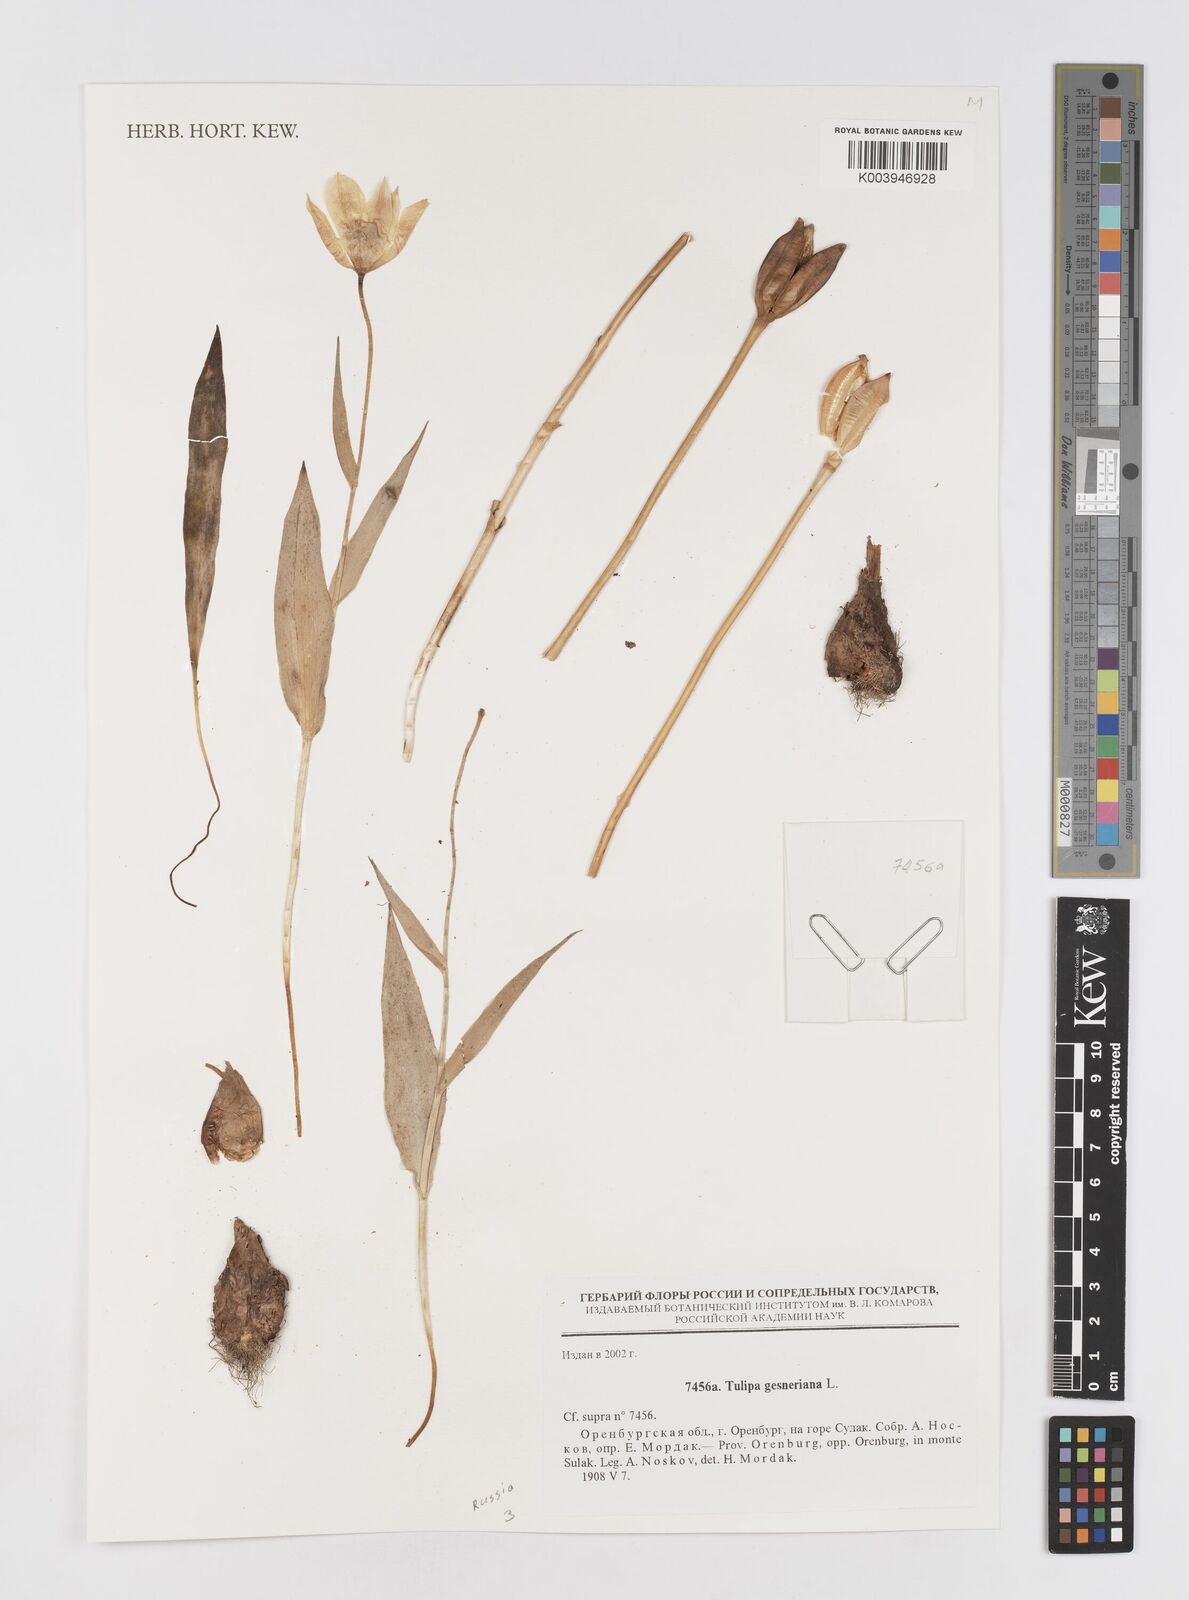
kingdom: Plantae
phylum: Tracheophyta
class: Liliopsida
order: Liliales
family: Liliaceae
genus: Tulipa
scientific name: Tulipa gesneriana
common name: Garden tulip
